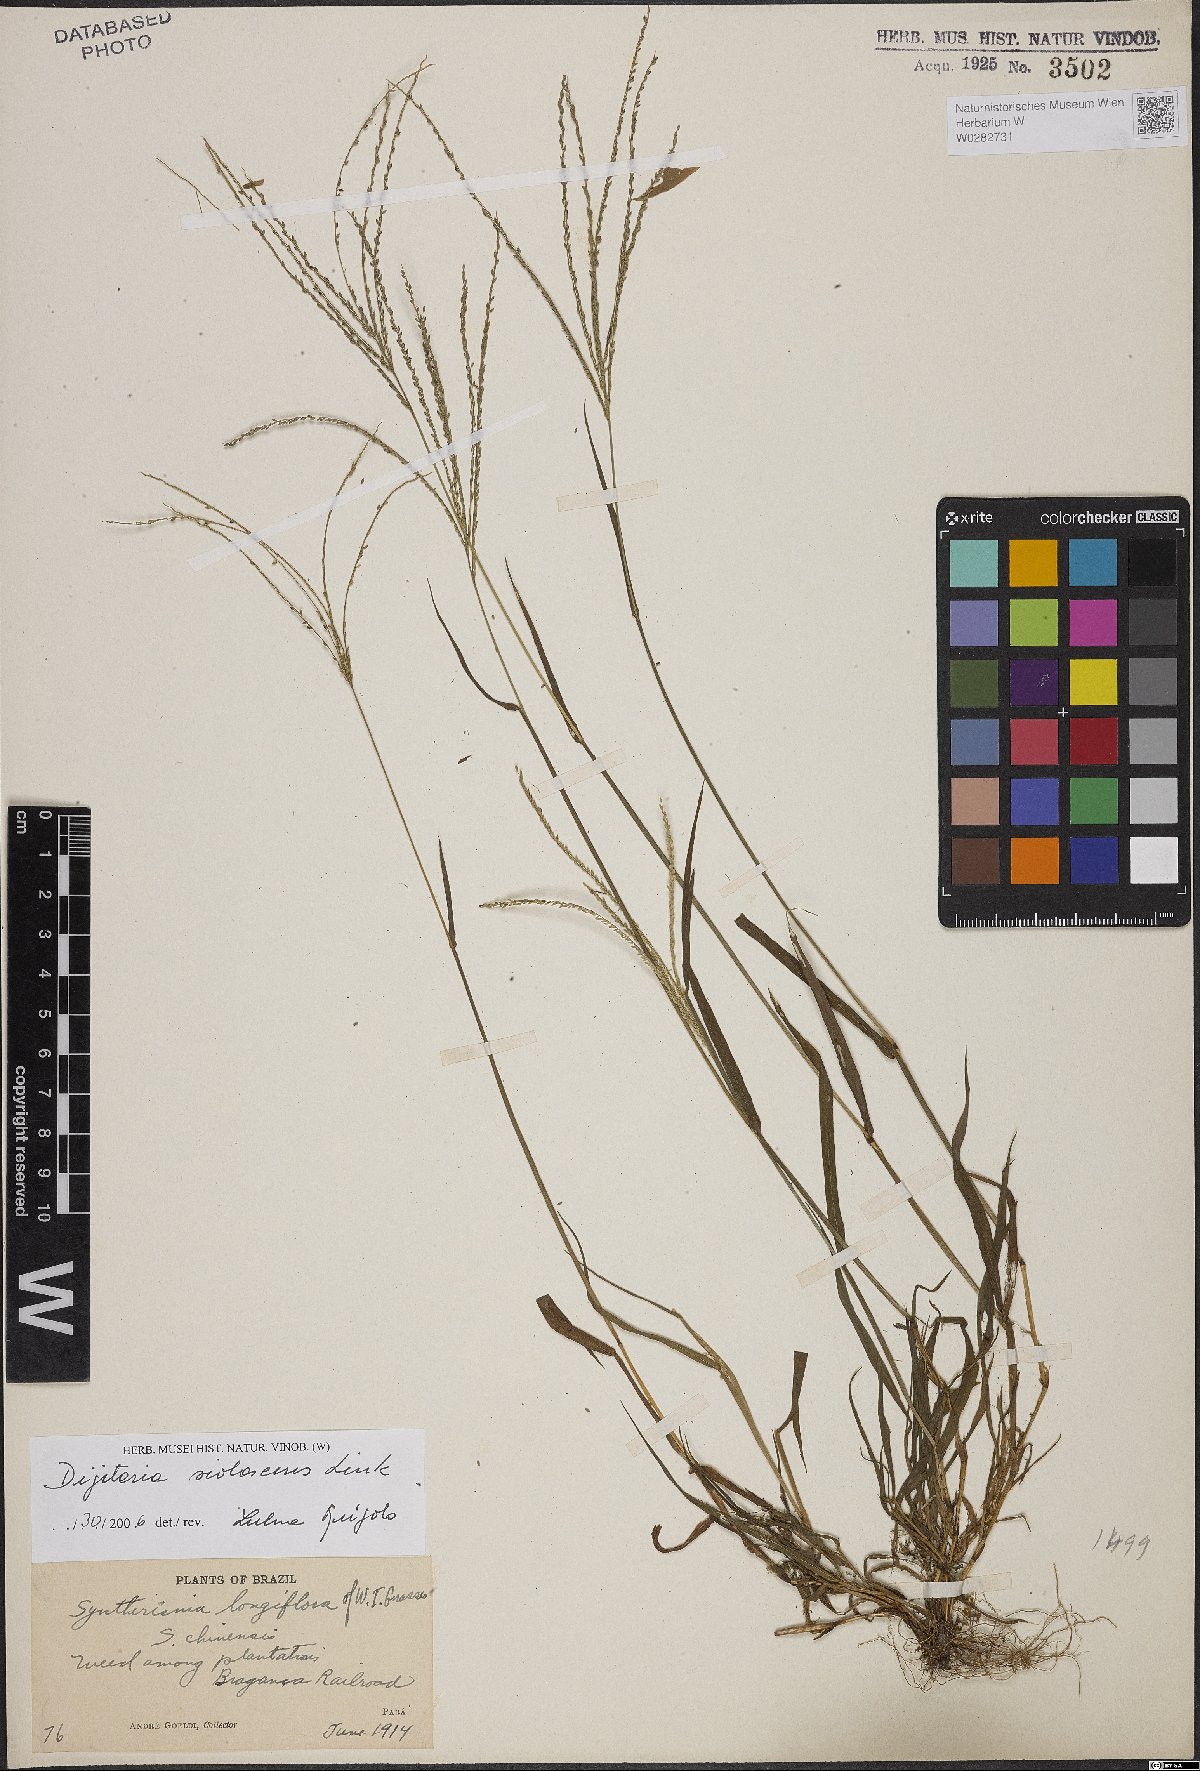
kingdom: Plantae
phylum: Tracheophyta
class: Liliopsida
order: Poales
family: Poaceae
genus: Digitaria
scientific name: Digitaria violascens
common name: Violet crabgrass
